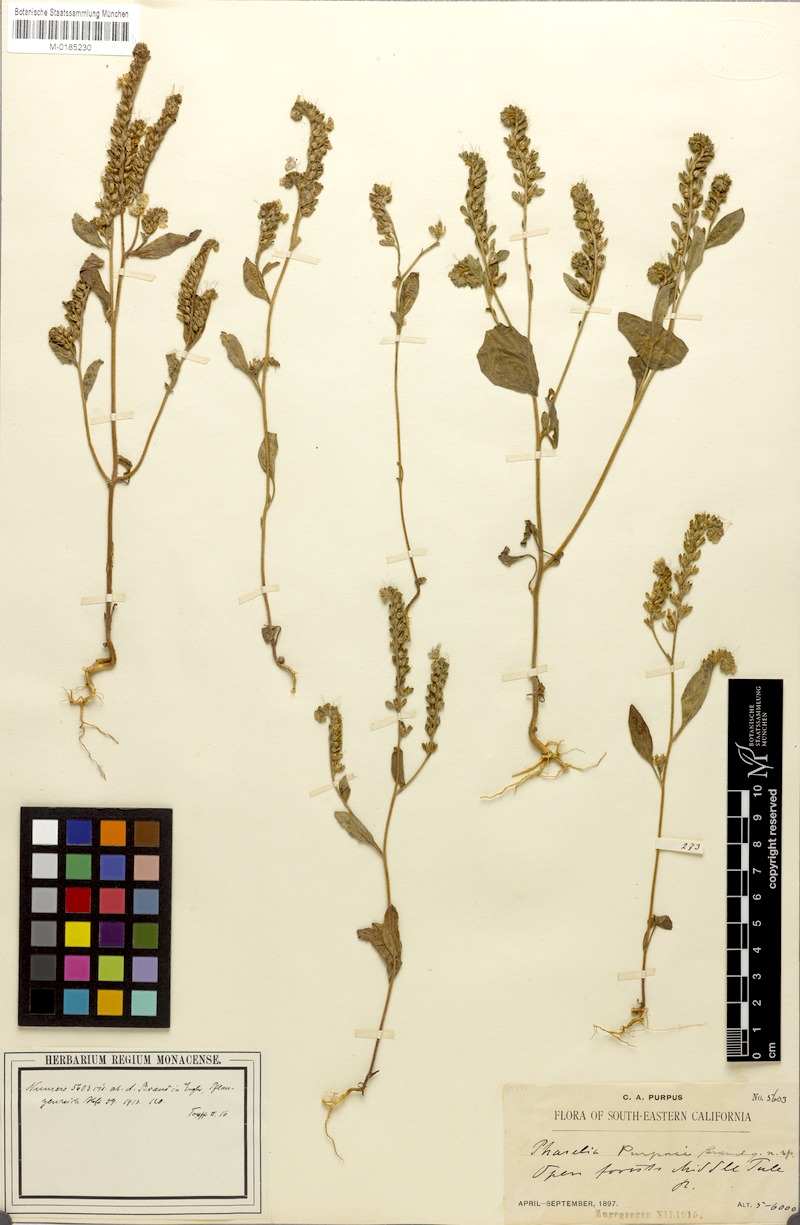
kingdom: Plantae
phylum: Tracheophyta
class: Magnoliopsida
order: Boraginales
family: Hydrophyllaceae
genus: Phacelia
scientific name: Phacelia purpusii
